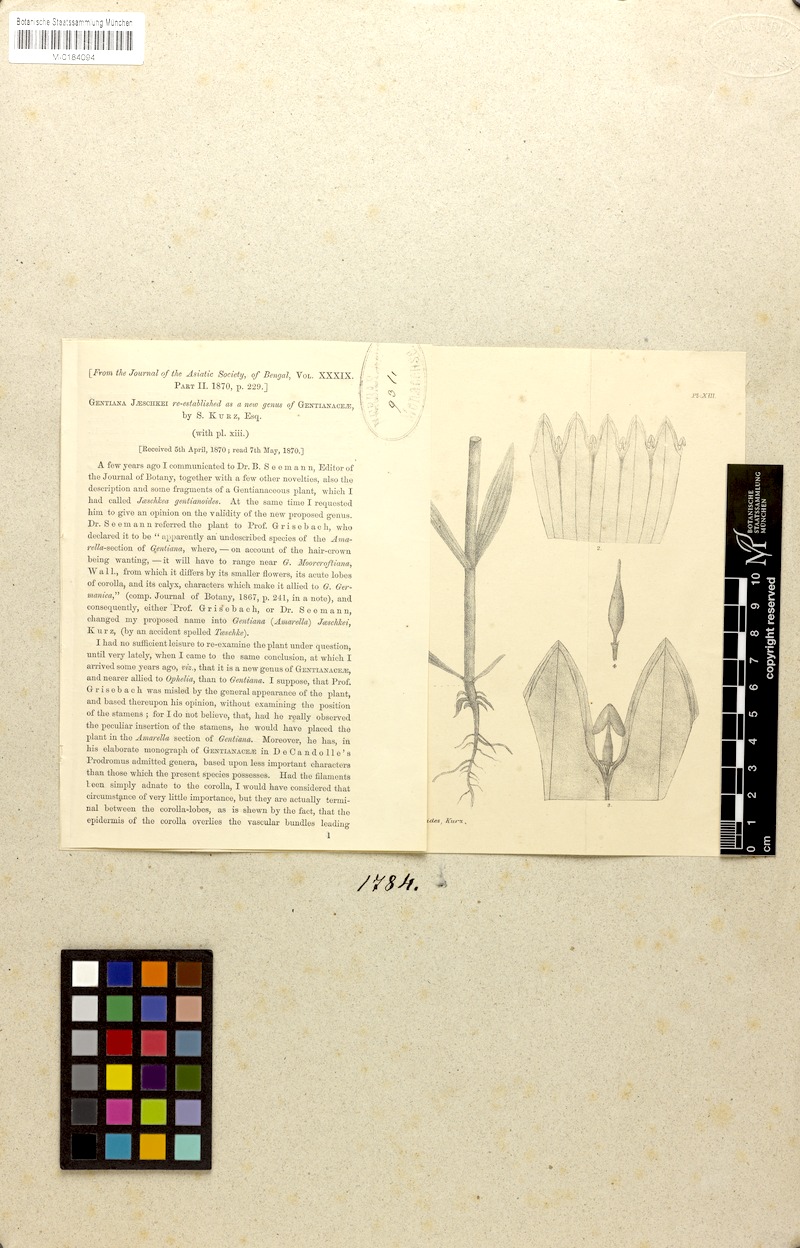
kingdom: Plantae
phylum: Tracheophyta
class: Magnoliopsida
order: Gentianales
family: Gentianaceae
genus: Jaeschkea
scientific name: Jaeschkea oligosperma
